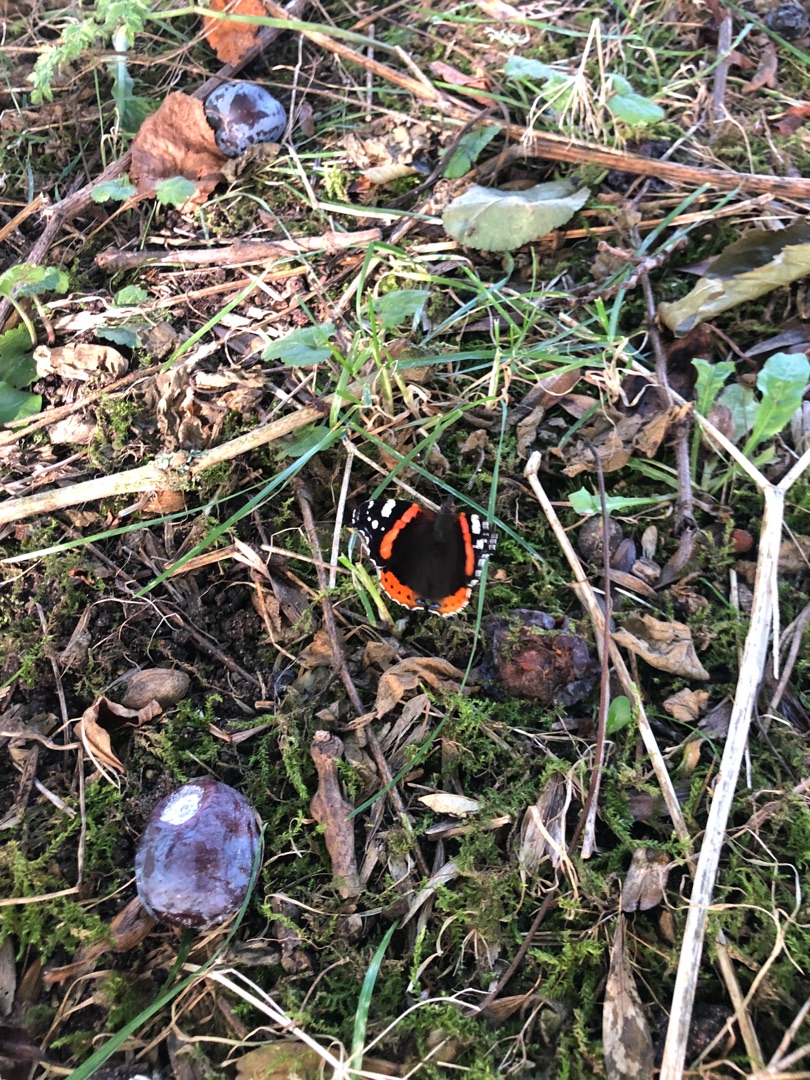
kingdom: Animalia
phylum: Arthropoda
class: Insecta
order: Lepidoptera
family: Nymphalidae
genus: Vanessa
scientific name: Vanessa atalanta
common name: Admiral
